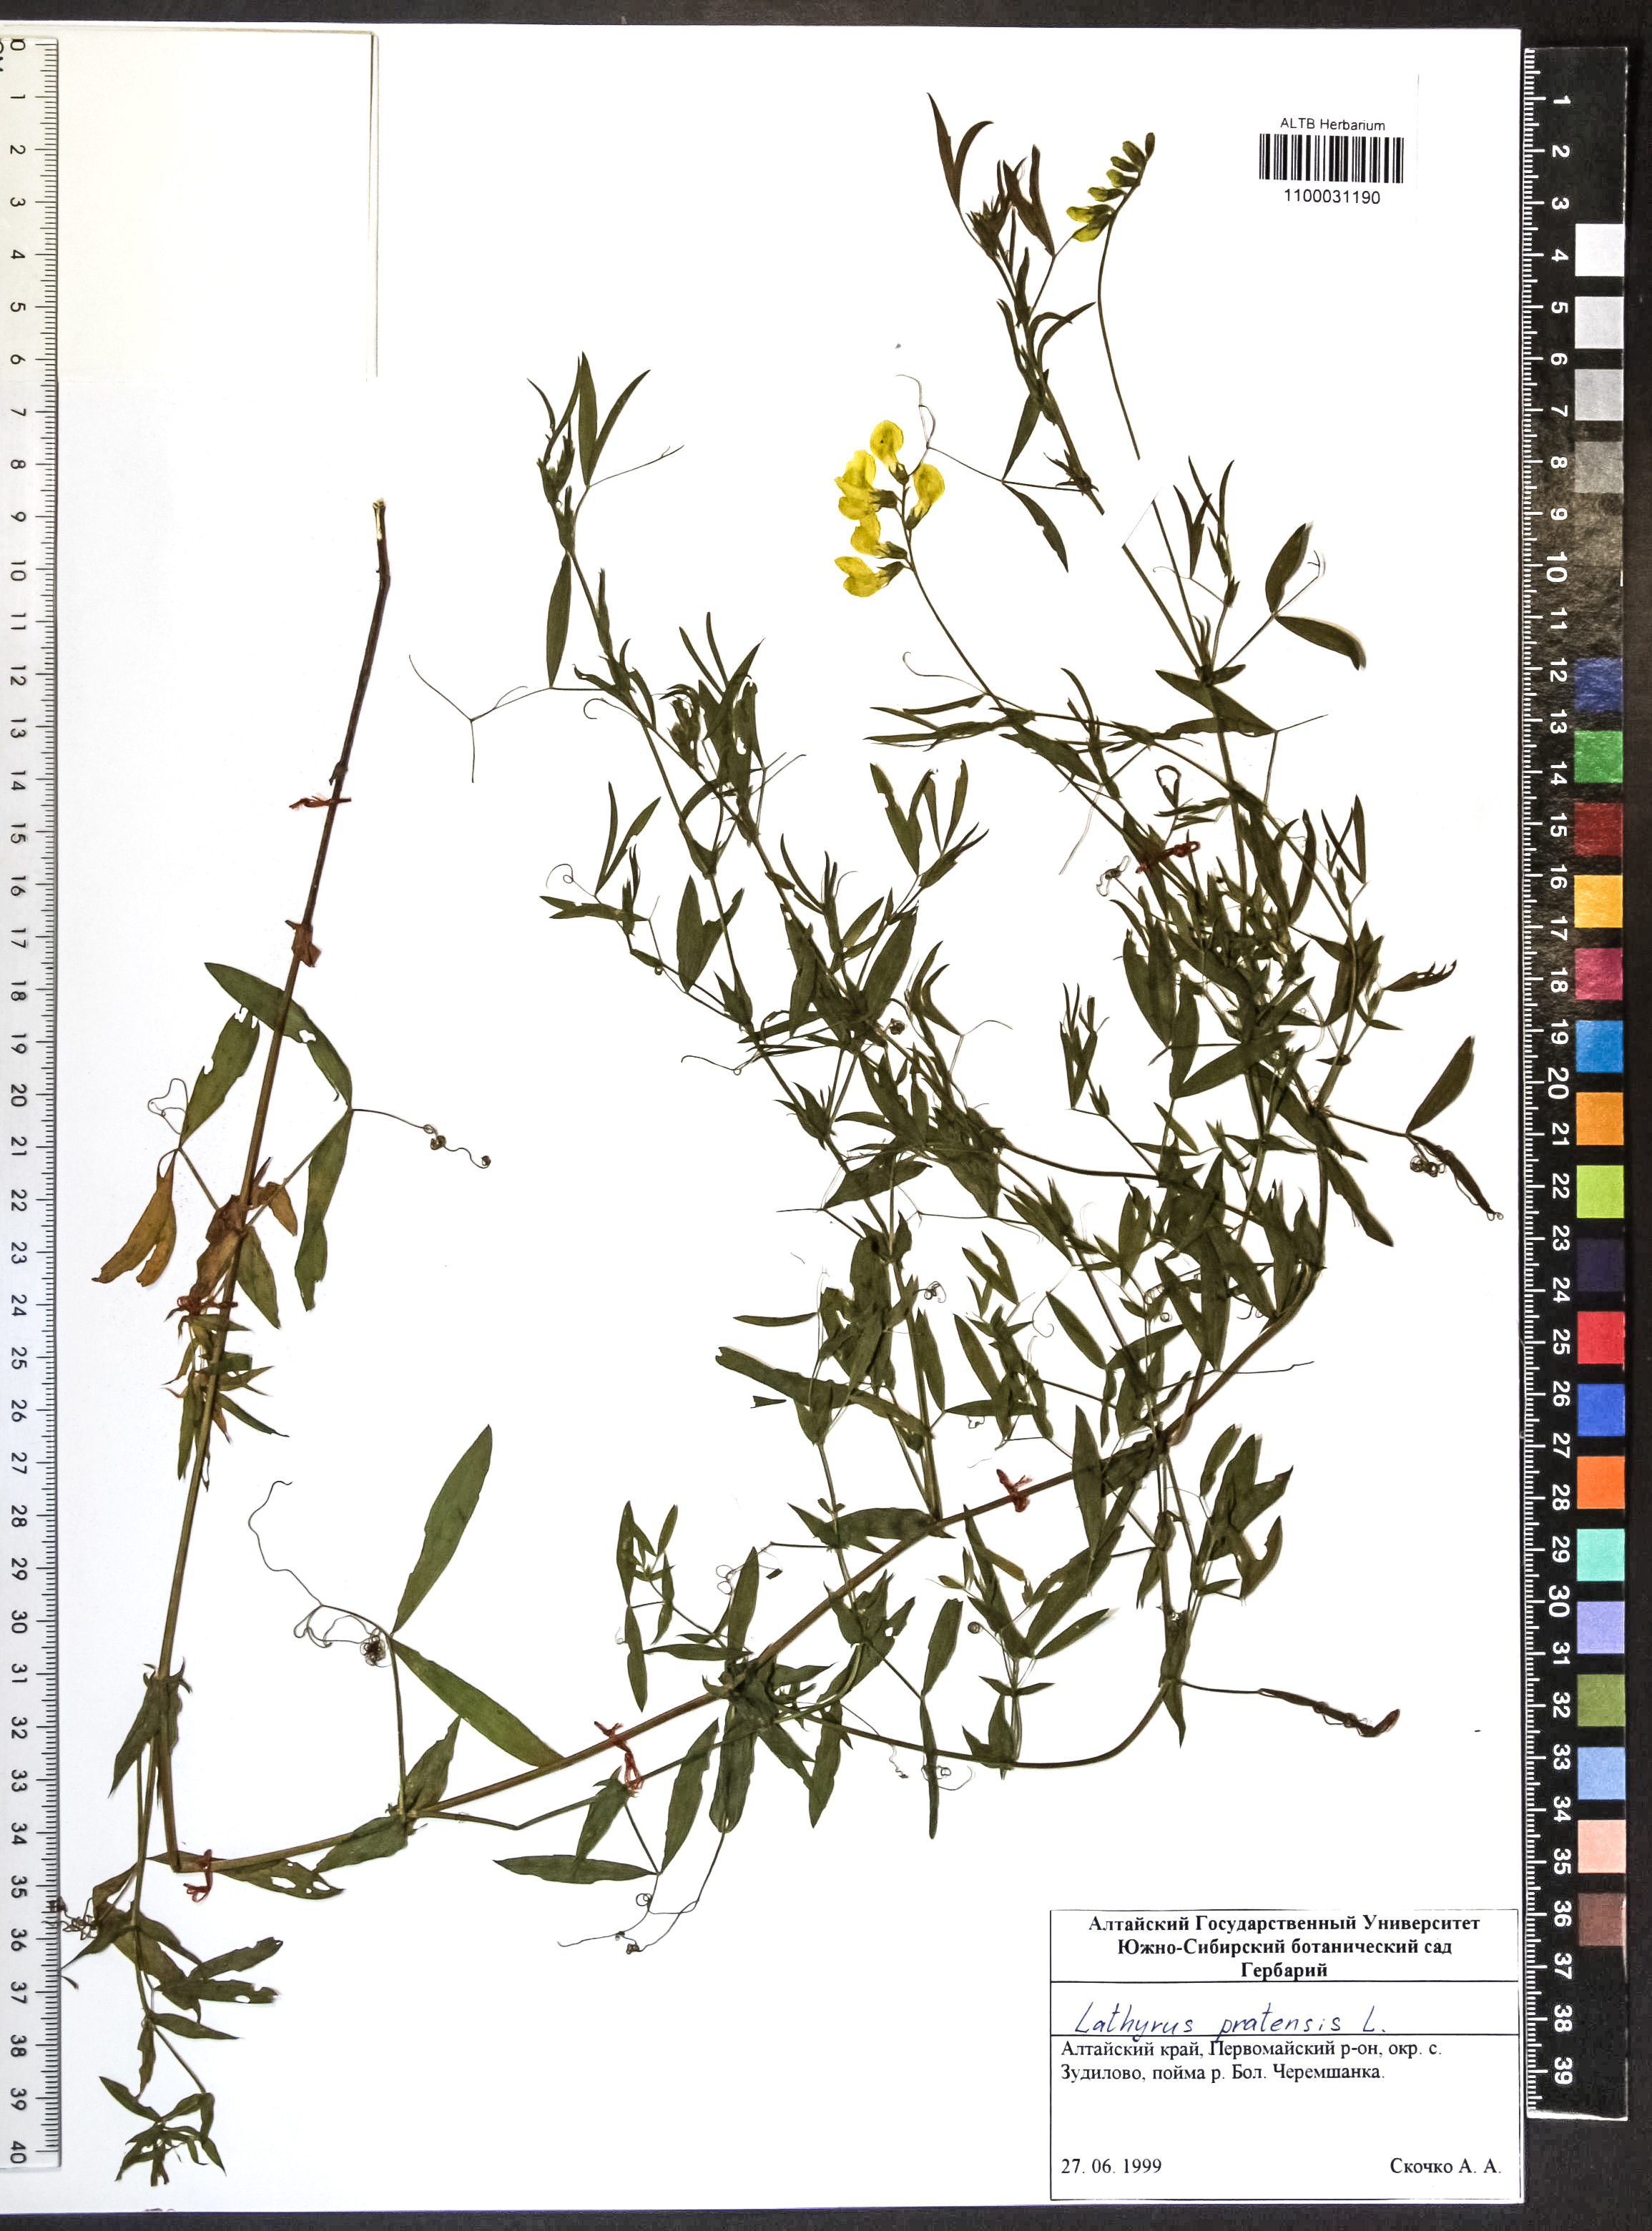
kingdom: Plantae
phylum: Tracheophyta
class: Magnoliopsida
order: Fabales
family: Fabaceae
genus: Lathyrus
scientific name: Lathyrus pratensis
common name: Meadow vetchling
